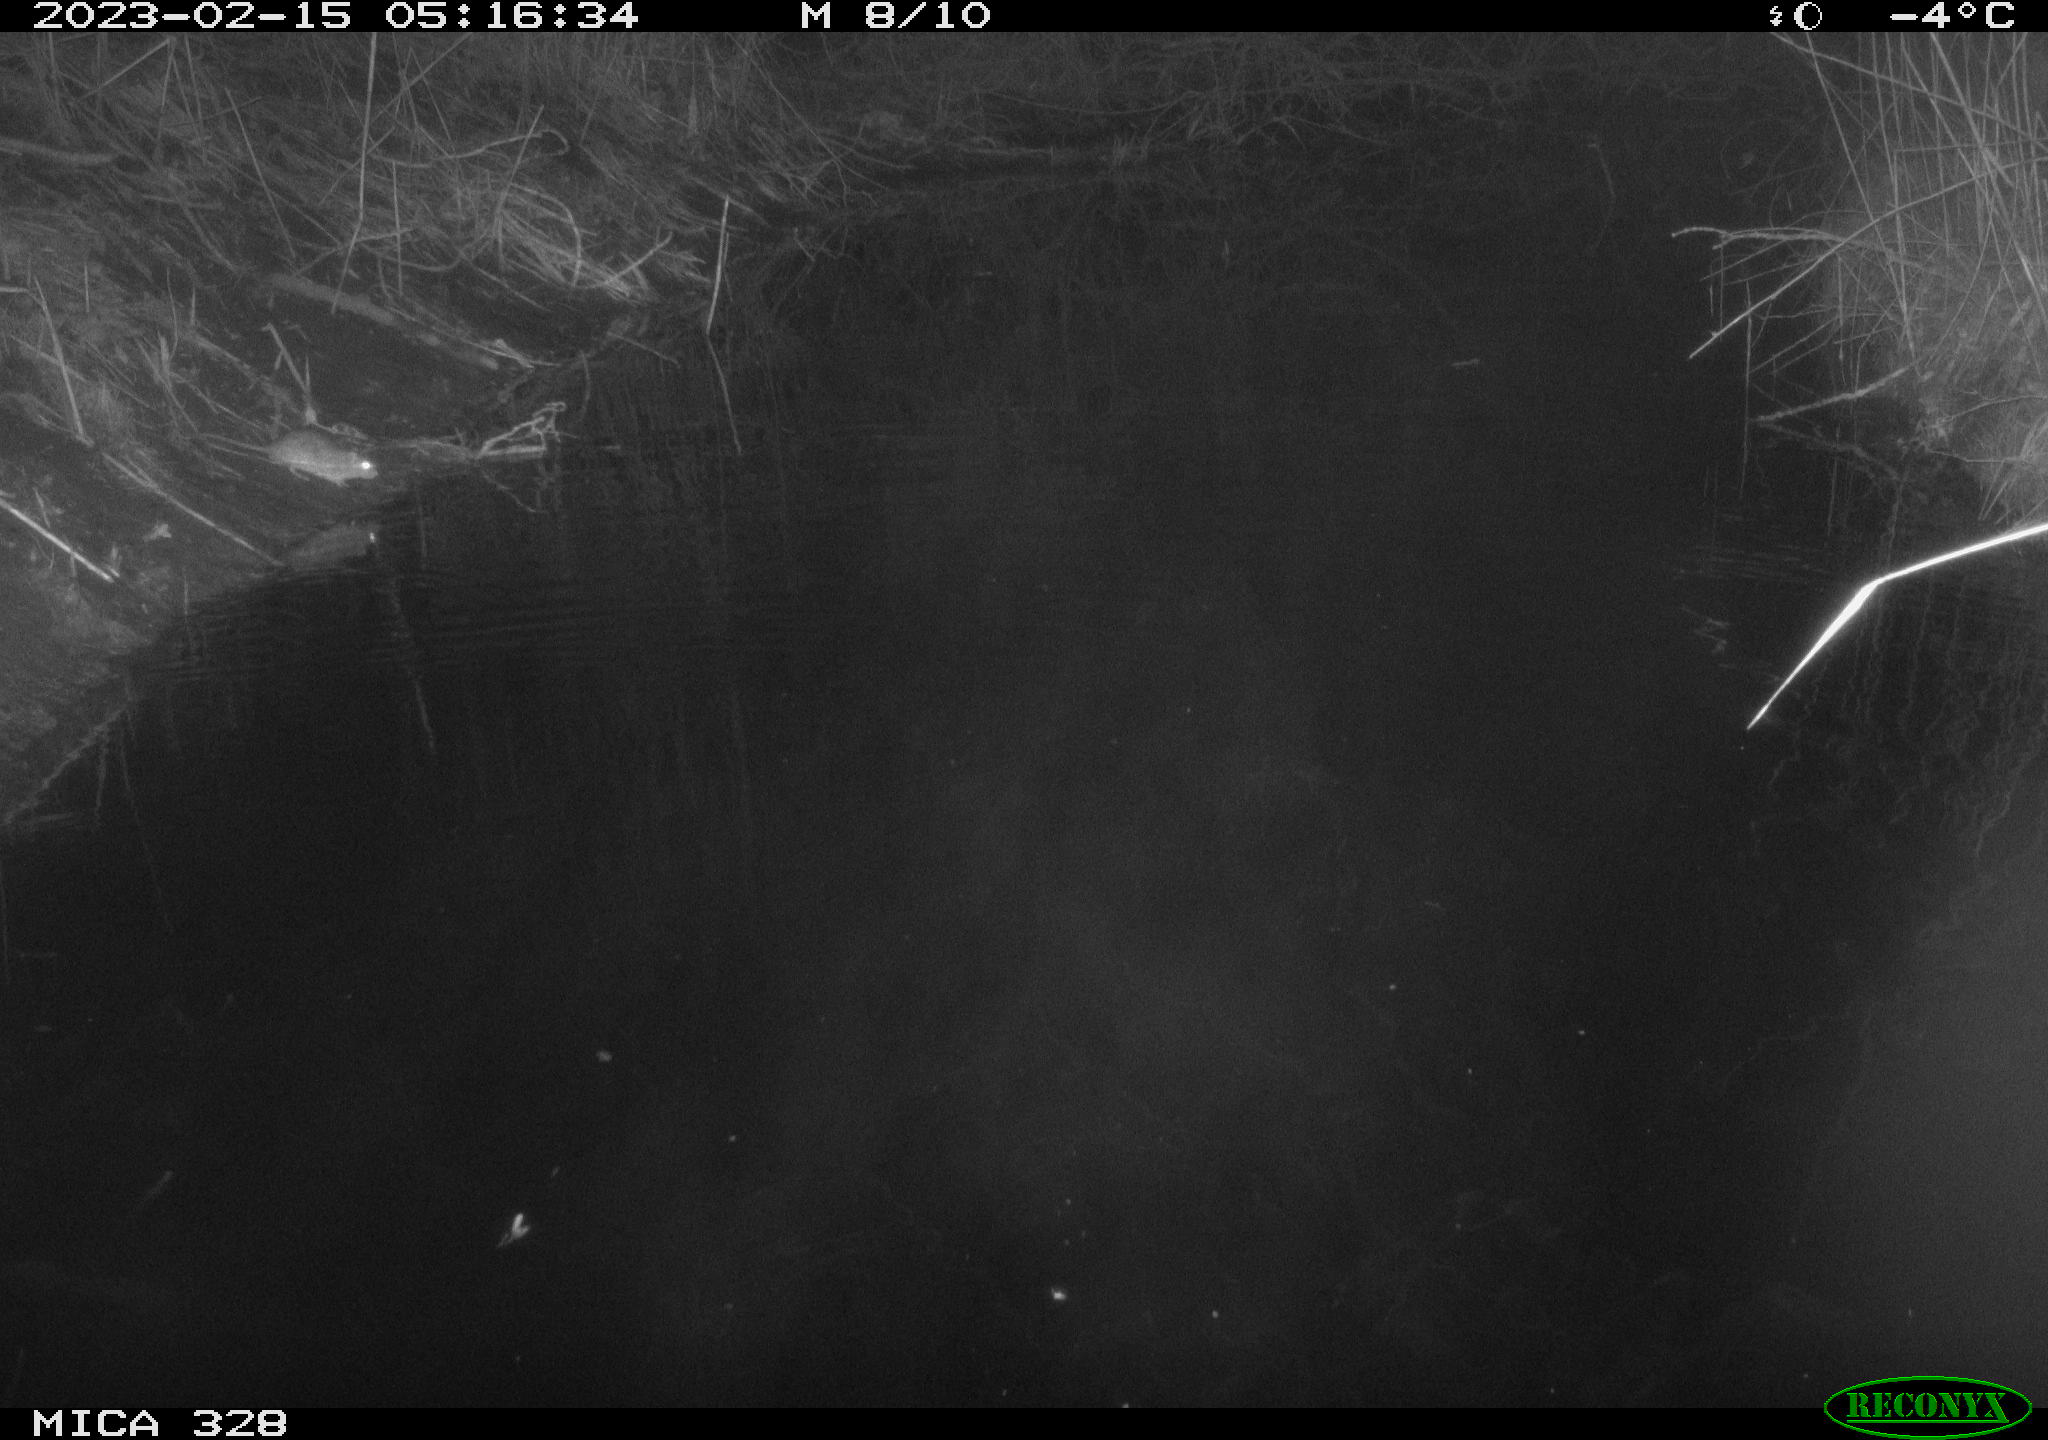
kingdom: Animalia
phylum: Chordata
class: Mammalia
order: Rodentia
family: Muridae
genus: Rattus
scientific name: Rattus norvegicus
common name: Brown rat
